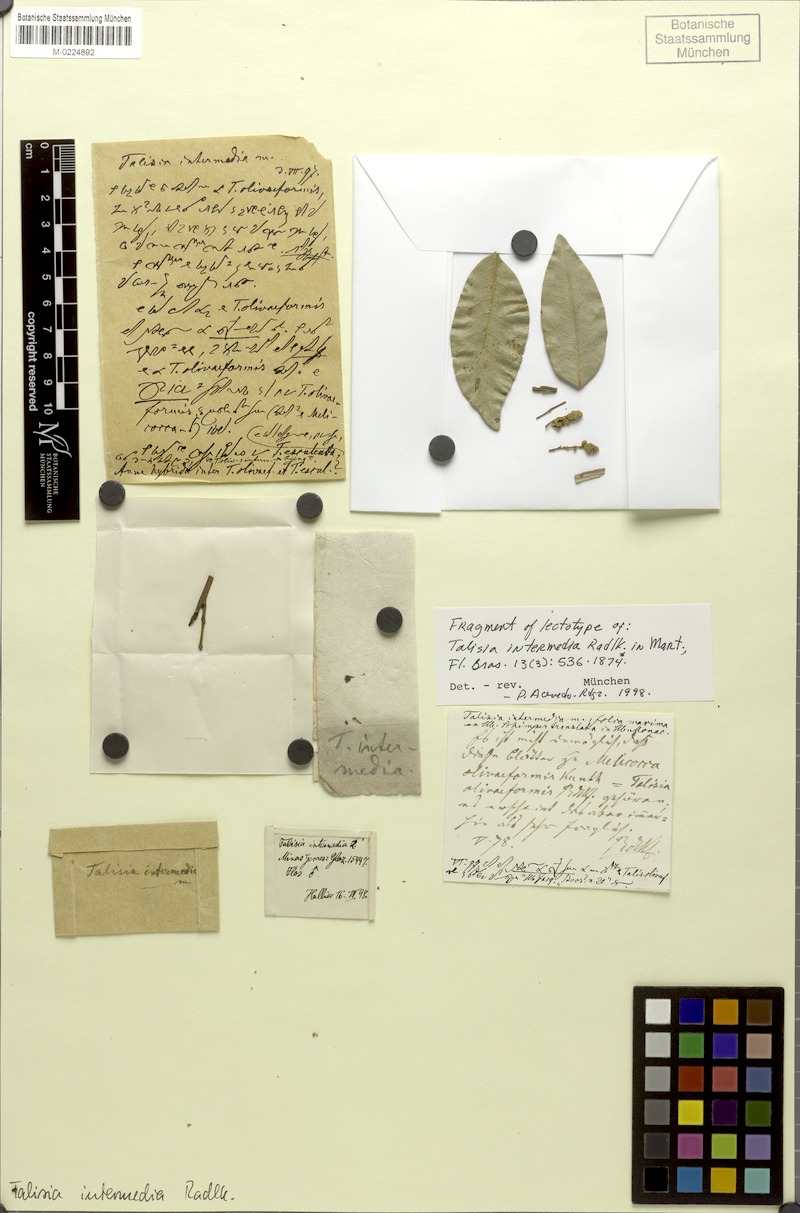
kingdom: Plantae
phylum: Tracheophyta
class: Magnoliopsida
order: Sapindales
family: Sapindaceae
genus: Melicoccus
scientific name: Melicoccus oliviformis
